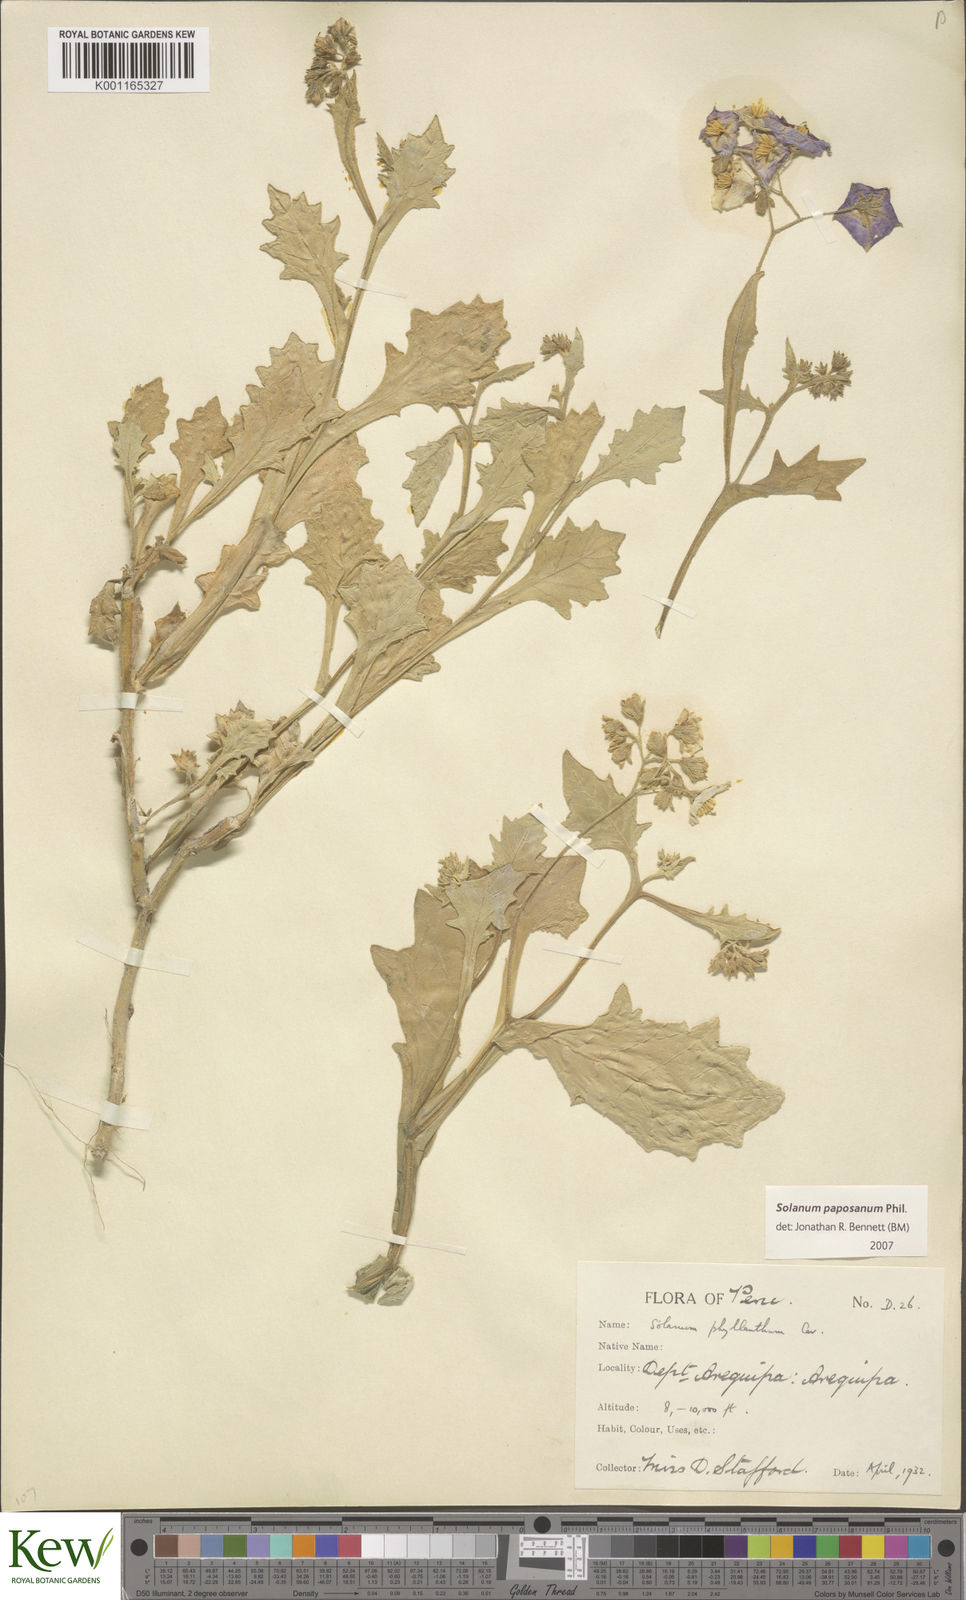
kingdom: Plantae
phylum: Tracheophyta
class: Magnoliopsida
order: Solanales
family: Solanaceae
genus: Solanum
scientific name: Solanum paposanum
